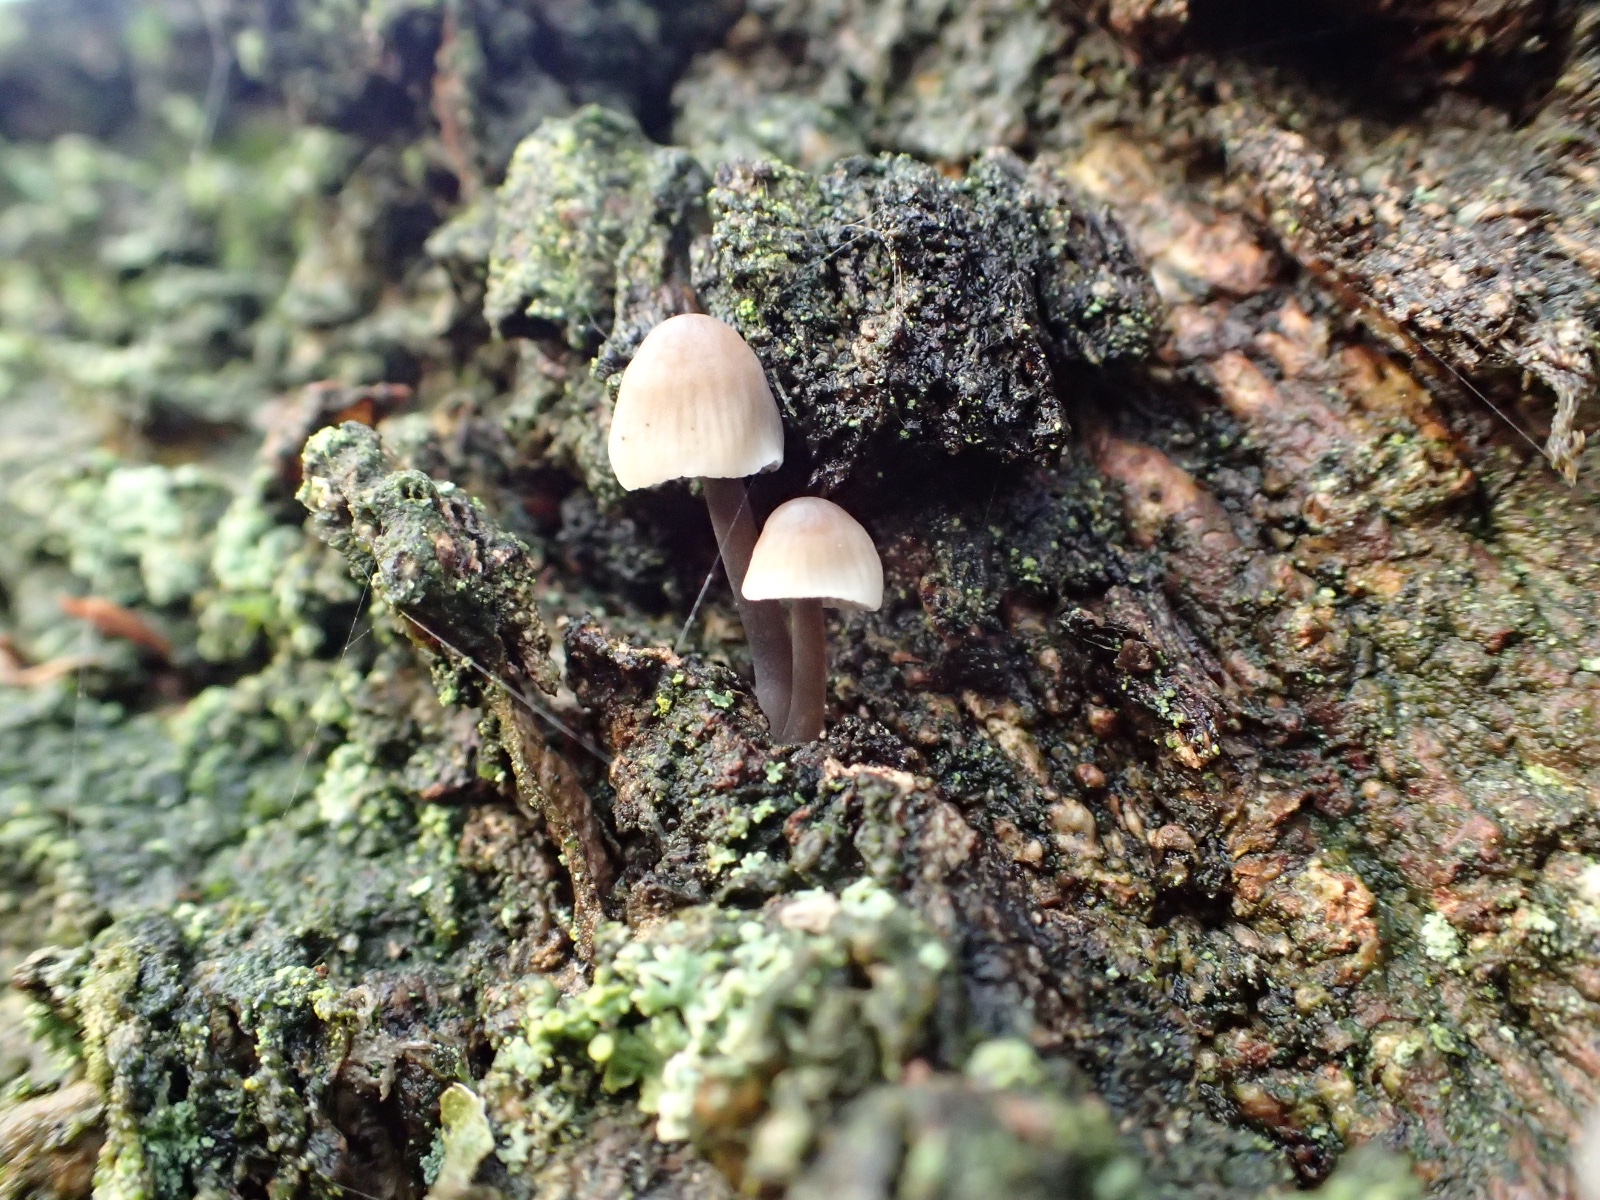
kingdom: Fungi
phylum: Basidiomycota
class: Agaricomycetes
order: Agaricales
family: Mycenaceae
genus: Mycena
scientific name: Mycena
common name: huesvamp
